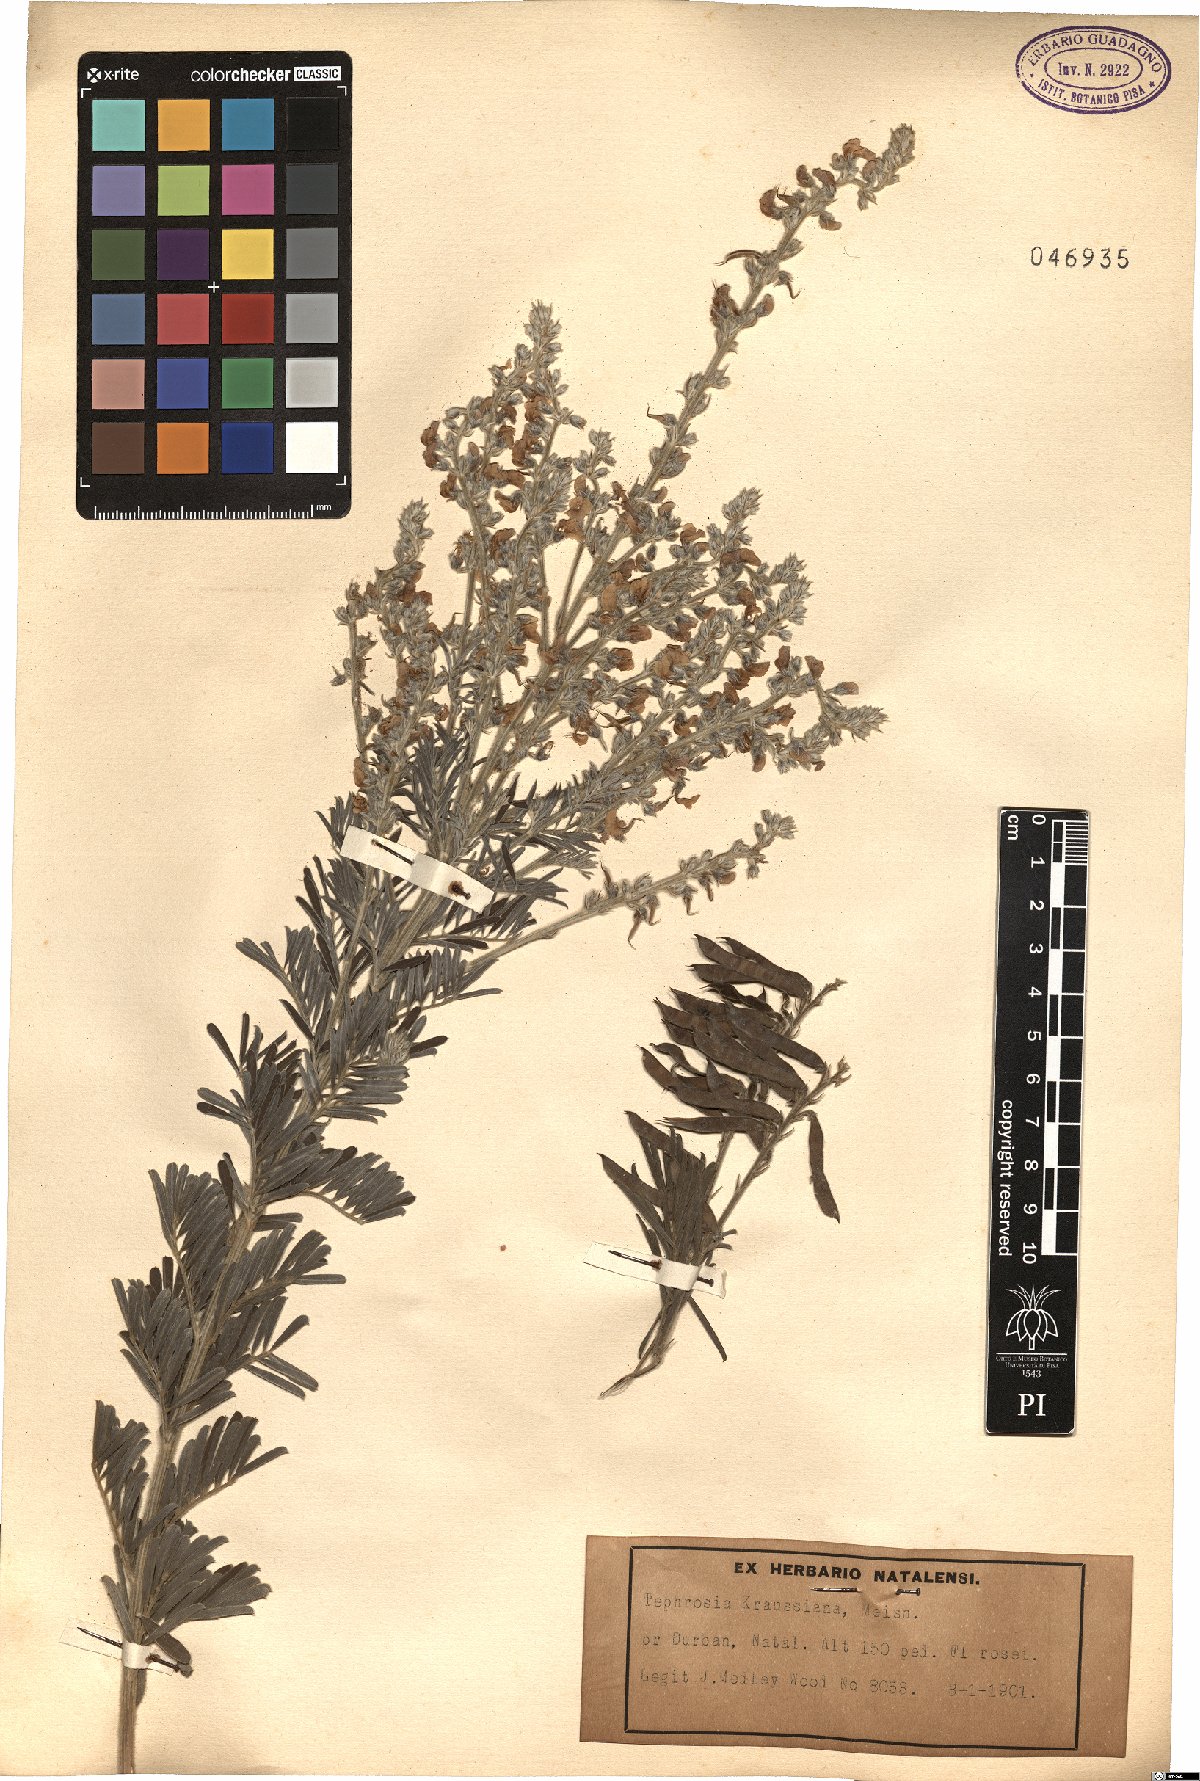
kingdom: Plantae
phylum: Tracheophyta
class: Magnoliopsida
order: Fabales
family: Fabaceae
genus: Tephrosia
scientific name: Tephrosia kraussiana
